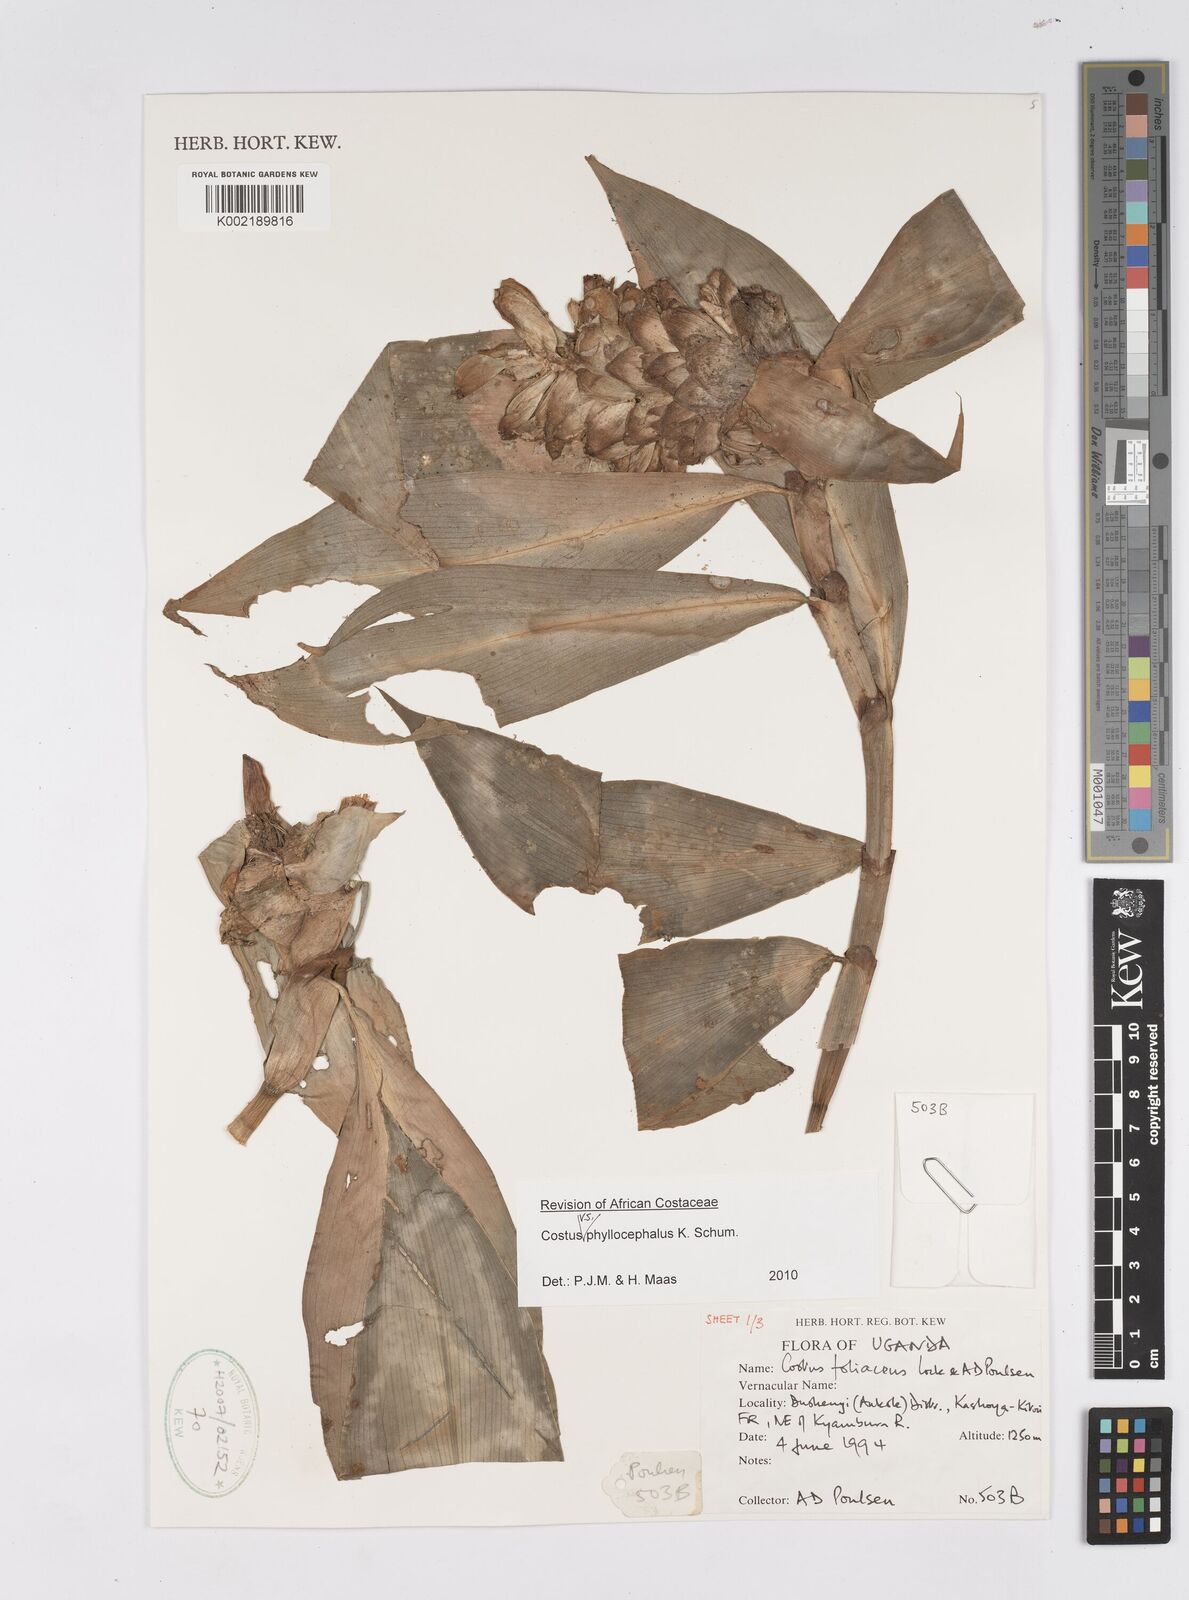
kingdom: Plantae
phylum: Tracheophyta
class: Liliopsida
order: Zingiberales
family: Costaceae
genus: Costus
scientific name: Costus phyllocephalus
